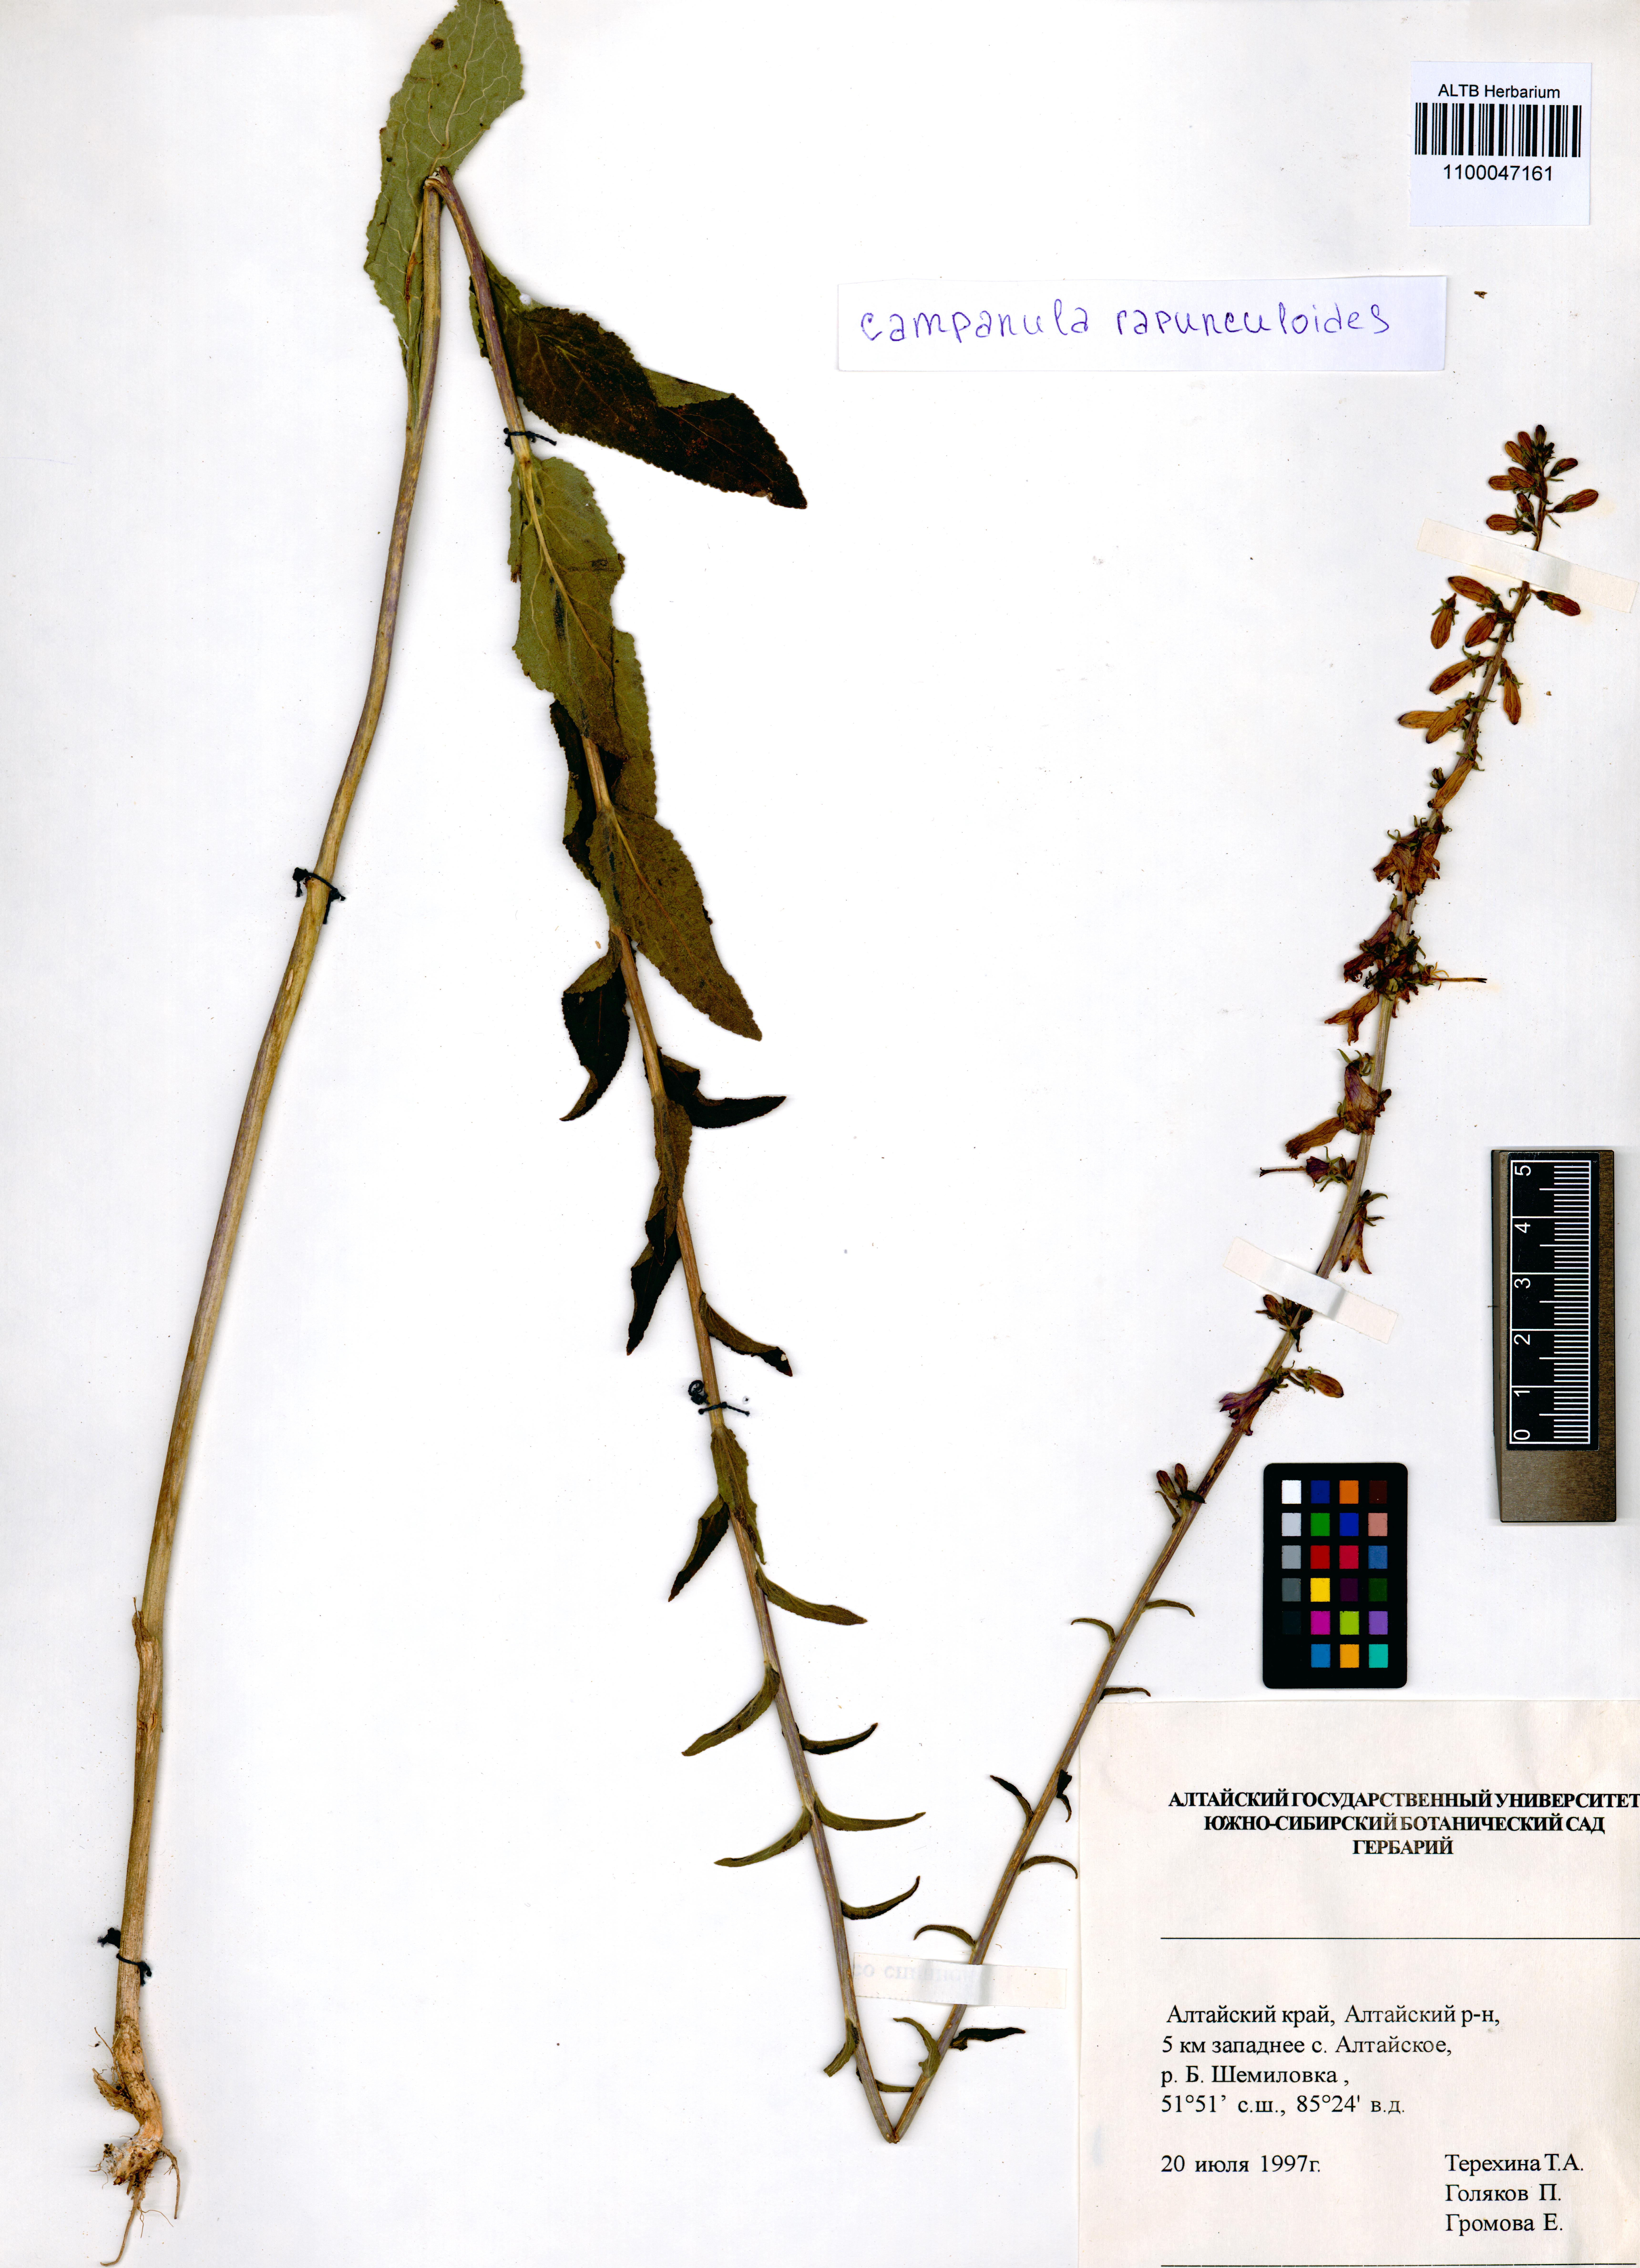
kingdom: Plantae
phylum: Tracheophyta
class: Magnoliopsida
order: Asterales
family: Campanulaceae
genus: Campanula
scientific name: Campanula rapunculoides
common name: Creeping bellflower
